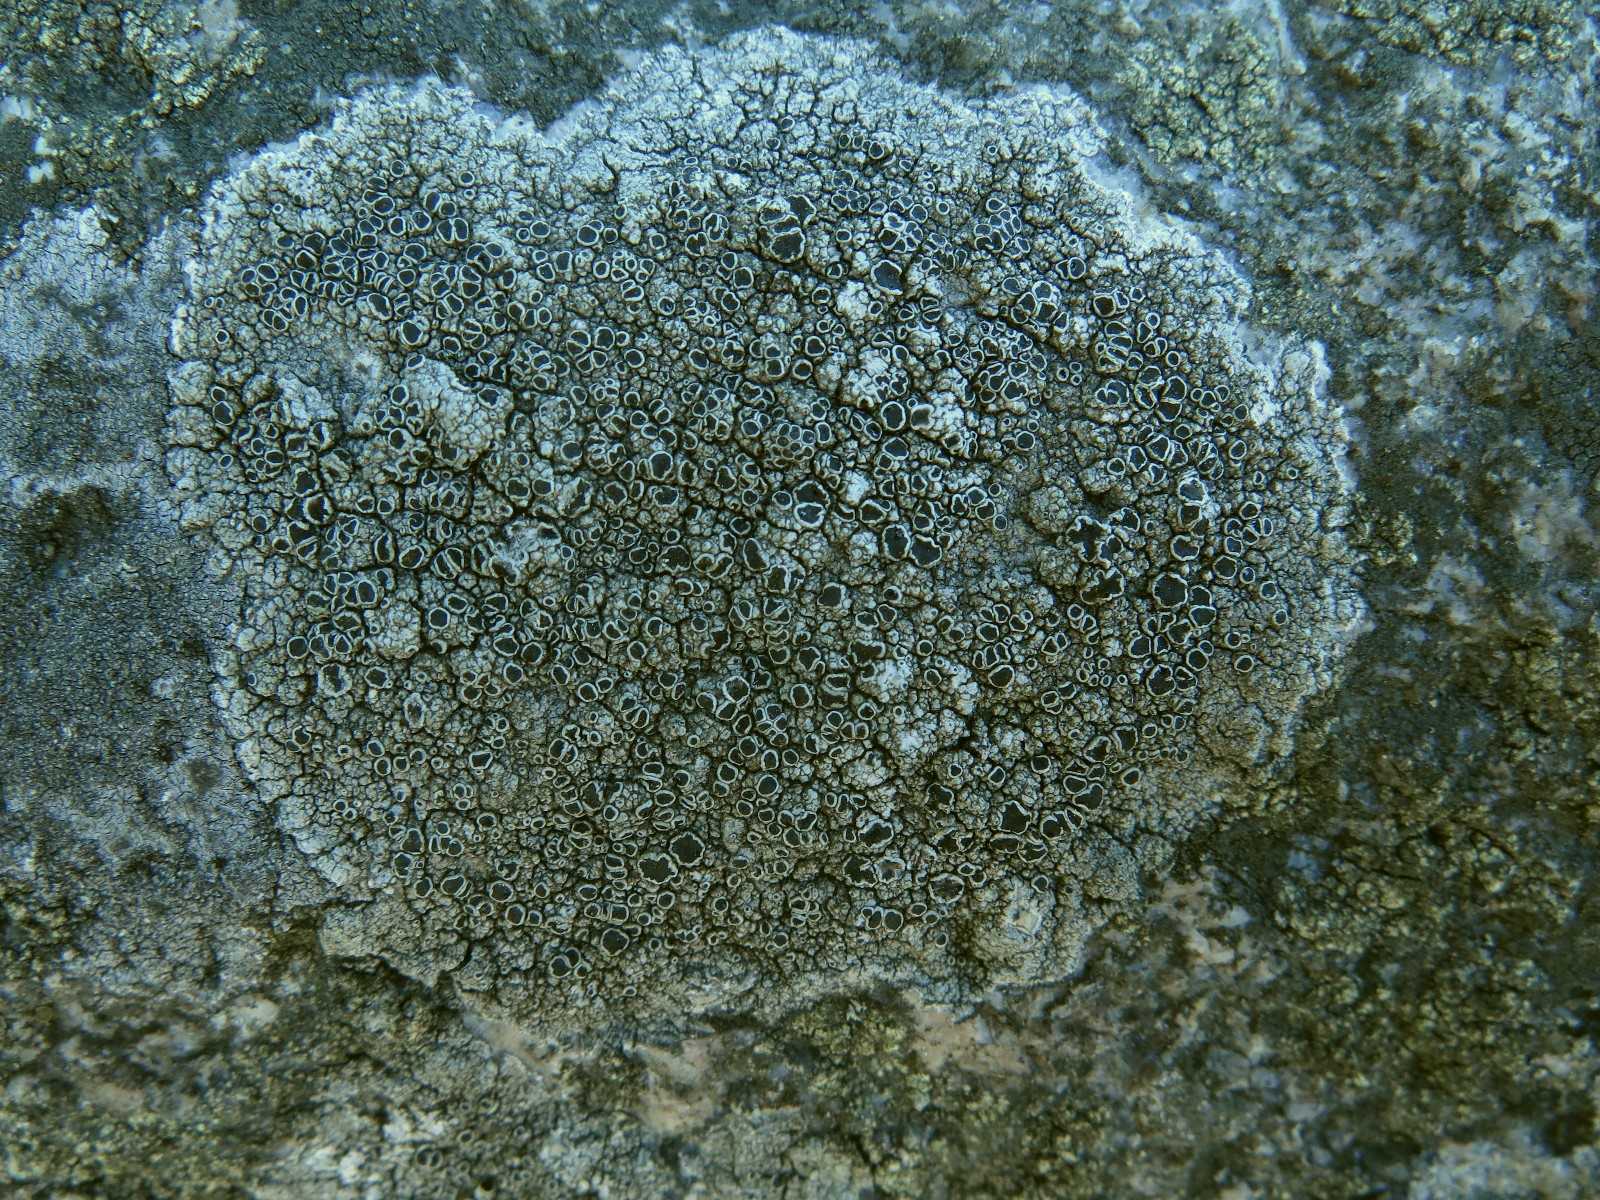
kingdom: Fungi
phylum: Ascomycota
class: Lecanoromycetes
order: Lecanorales
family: Tephromelataceae
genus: Tephromela
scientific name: Tephromela atra
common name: sortfrugtet kantskivelav
